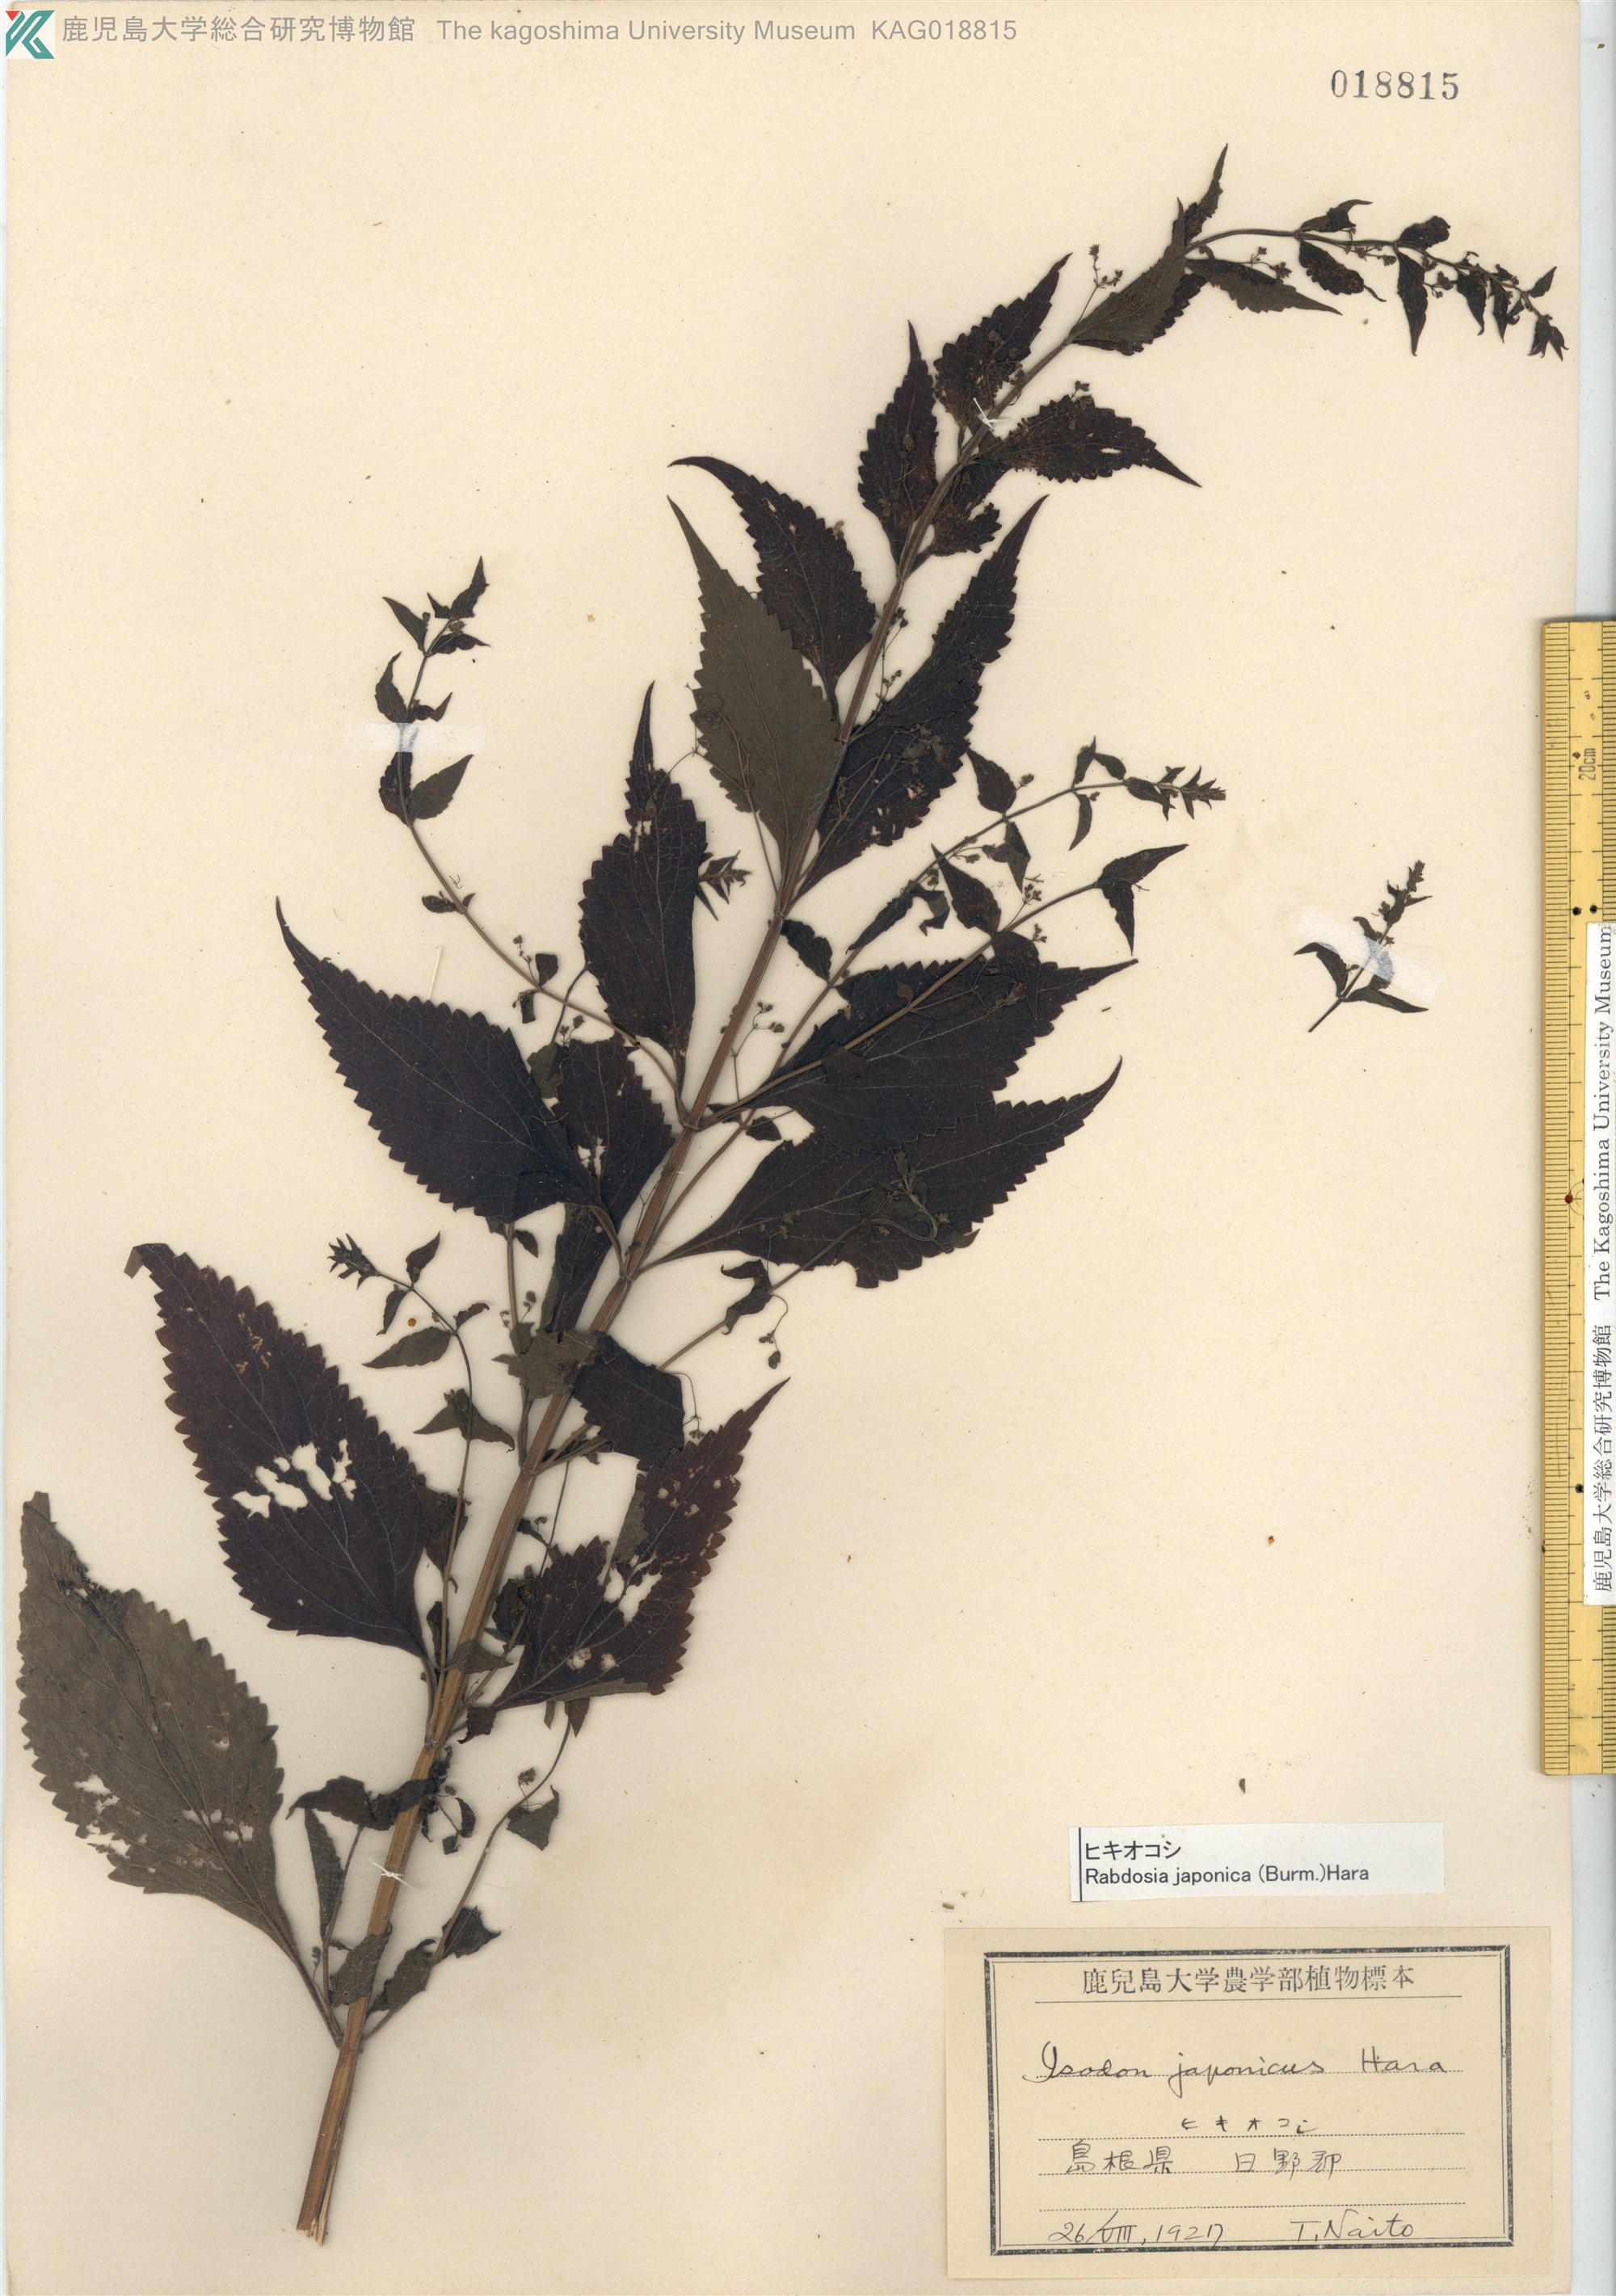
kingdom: Plantae
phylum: Tracheophyta
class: Magnoliopsida
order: Lamiales
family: Lamiaceae
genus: Isodon
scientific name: Isodon japonicus
